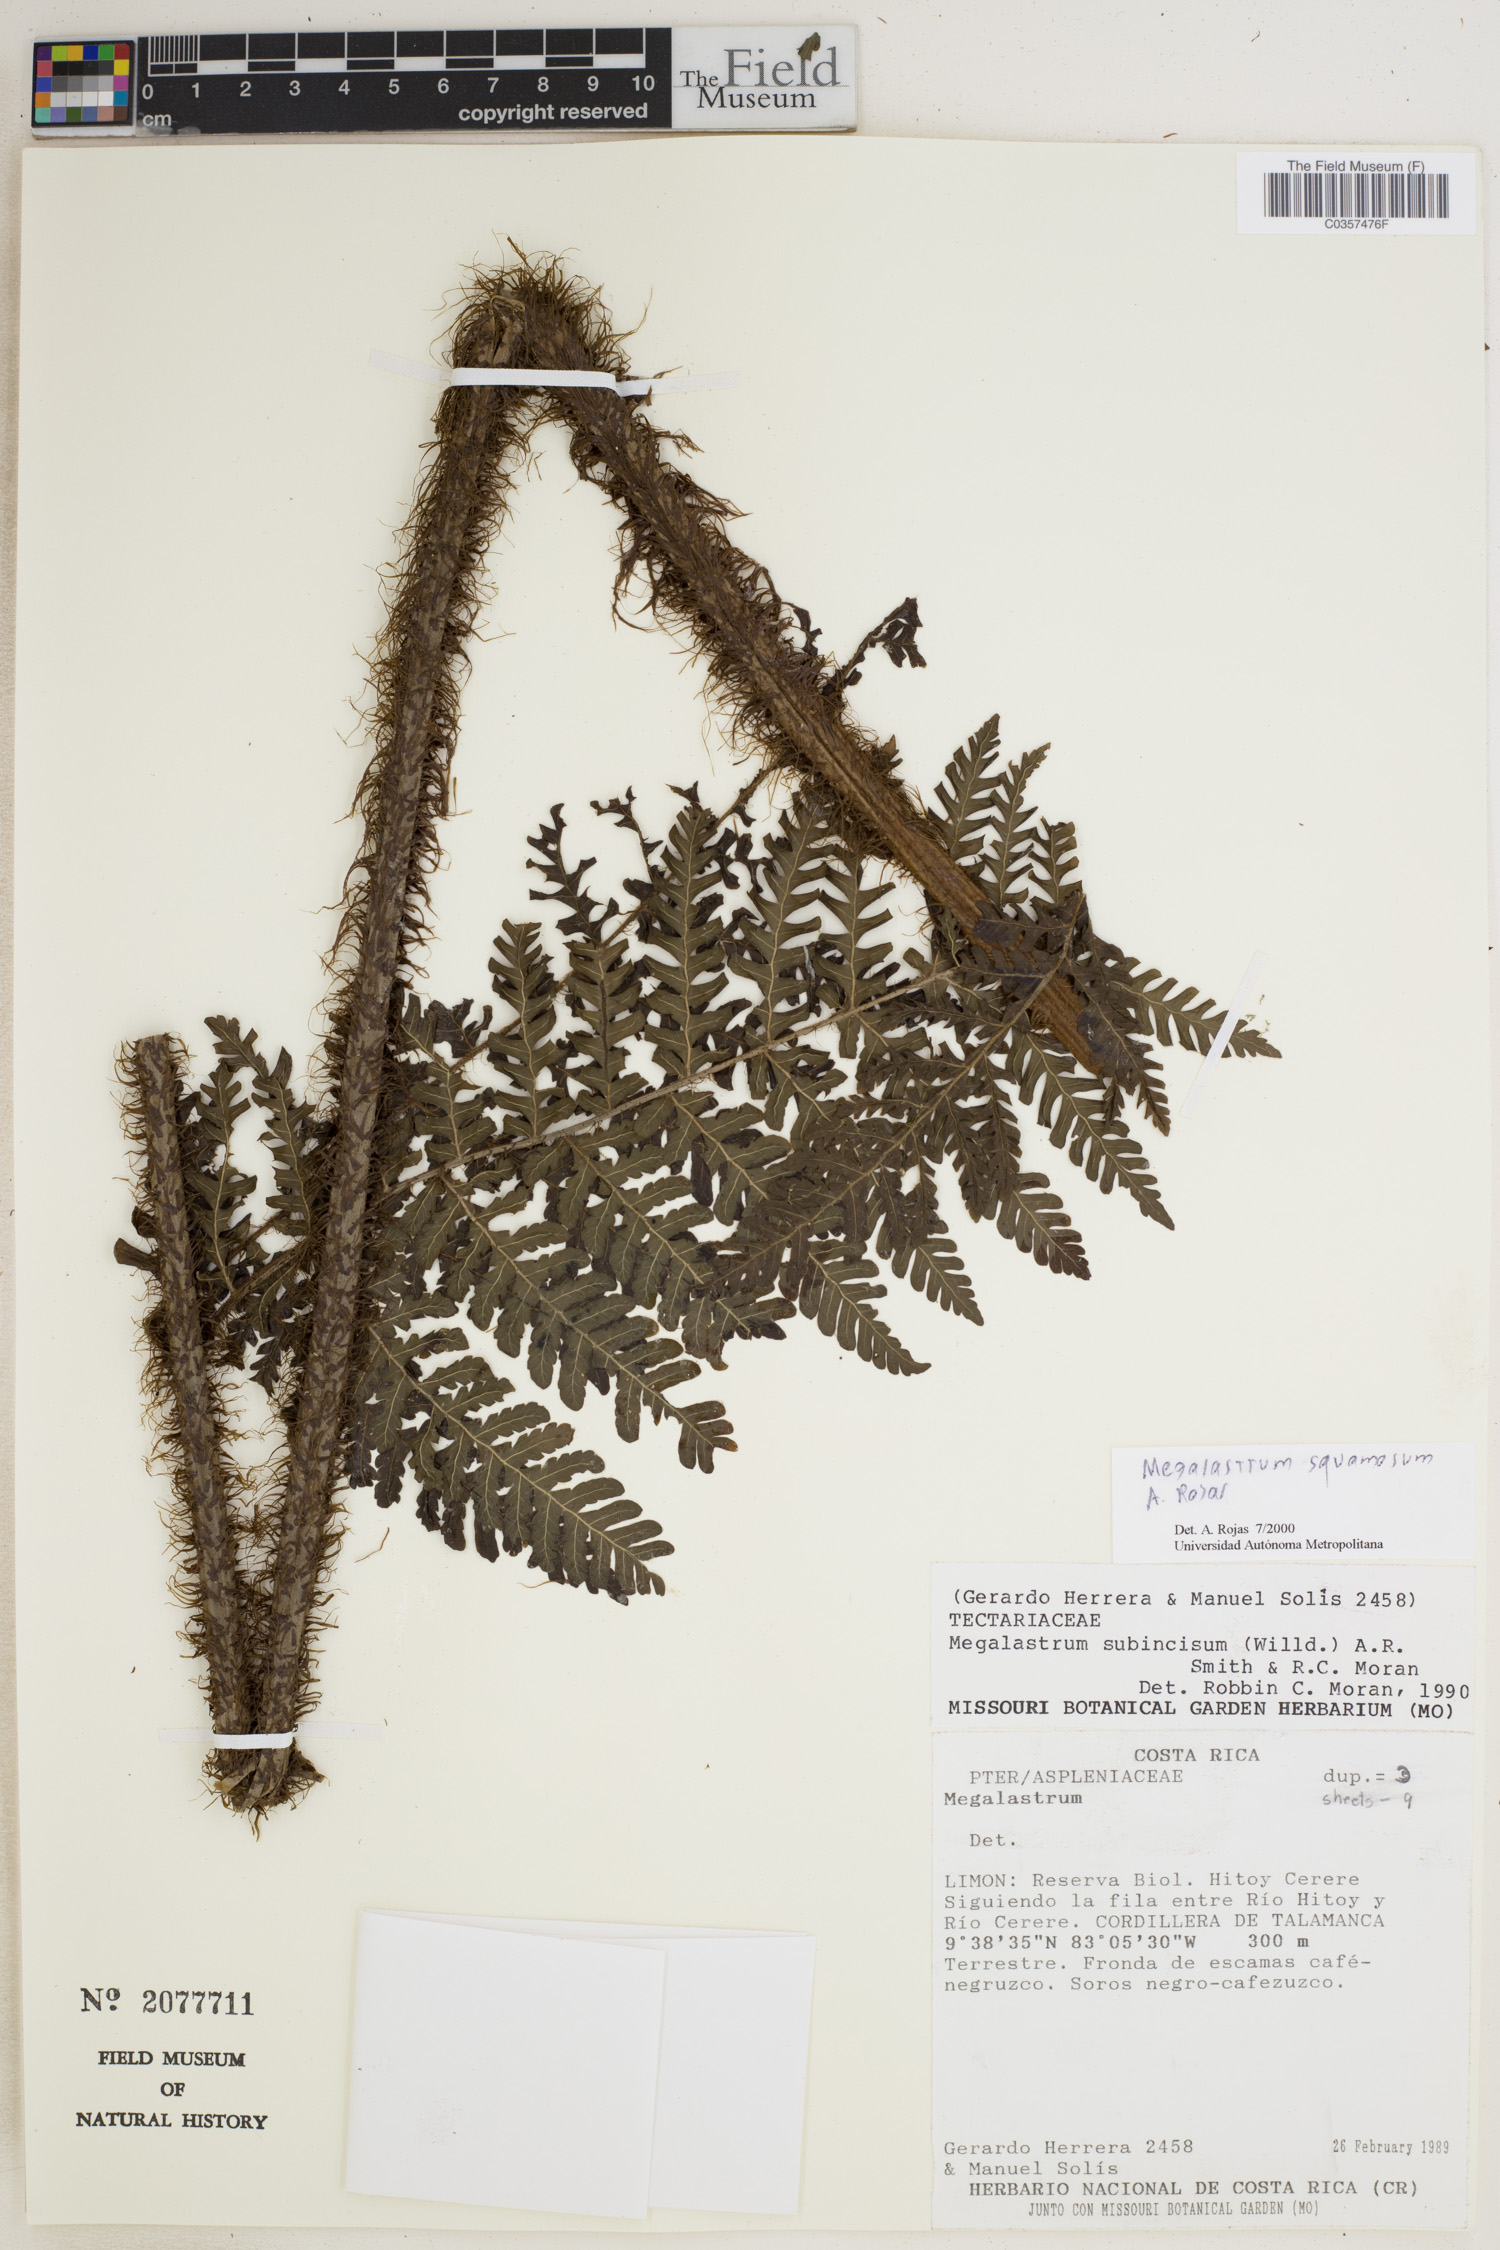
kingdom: Plantae
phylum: Tracheophyta
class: Polypodiopsida
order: Polypodiales
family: Dryopteridaceae
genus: Megalastrum
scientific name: Megalastrum squamosum
